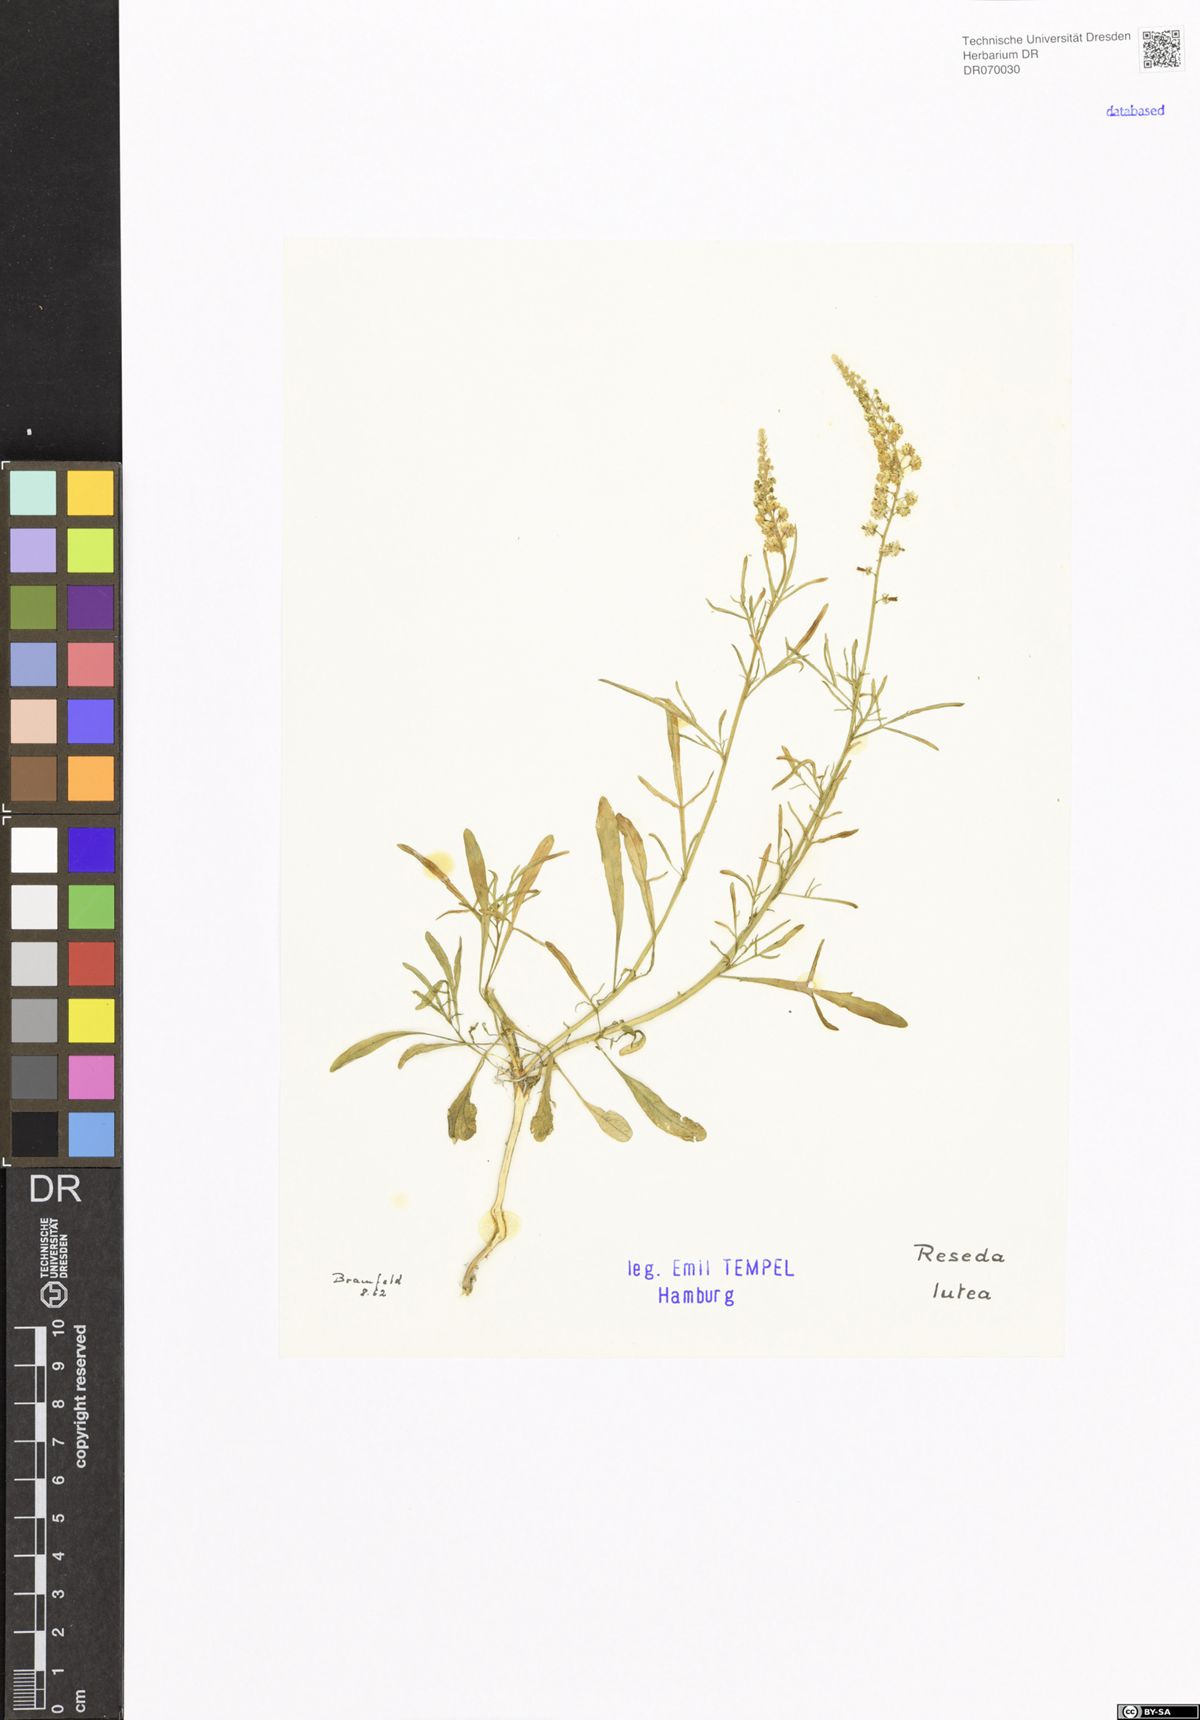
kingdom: Plantae
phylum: Tracheophyta
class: Magnoliopsida
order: Brassicales
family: Resedaceae
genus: Reseda
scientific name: Reseda lutea
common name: Wild mignonette
